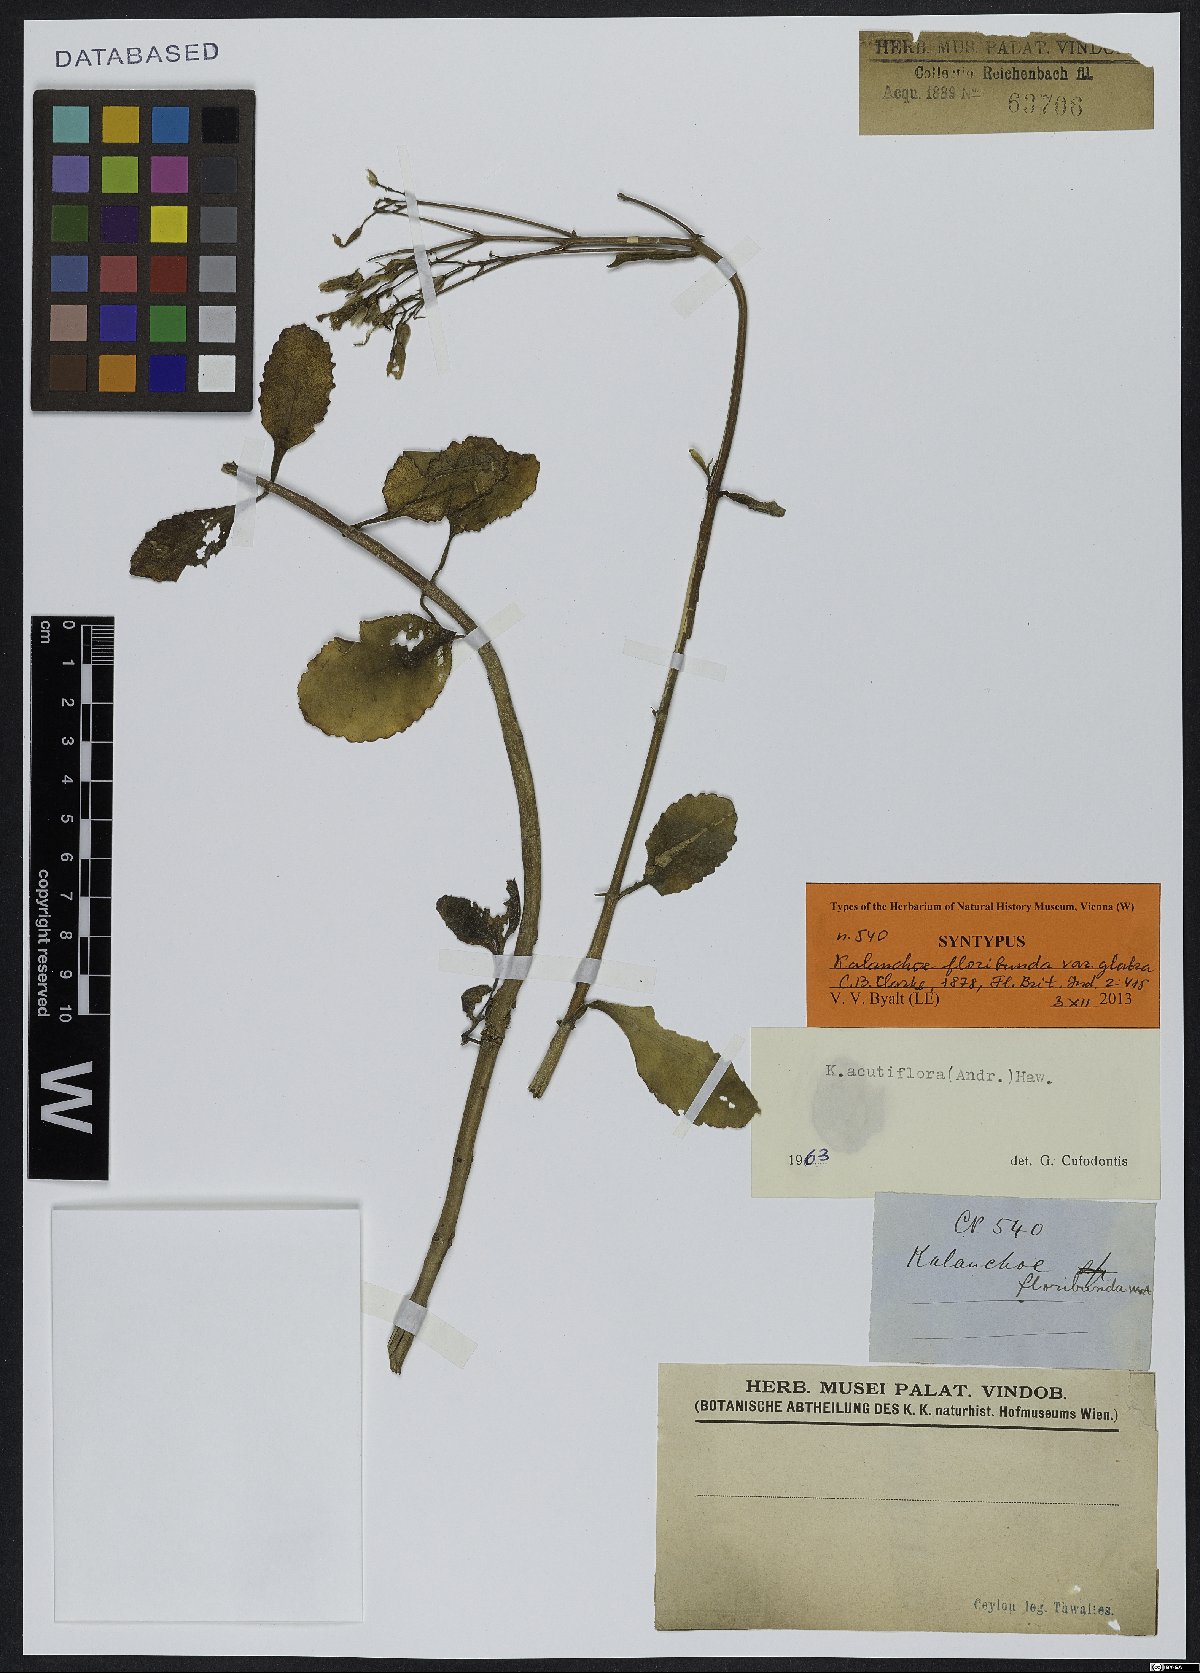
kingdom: Plantae
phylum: Tracheophyta
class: Magnoliopsida
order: Saxifragales
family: Crassulaceae
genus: Kalanchoe
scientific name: Kalanchoe floribunda
